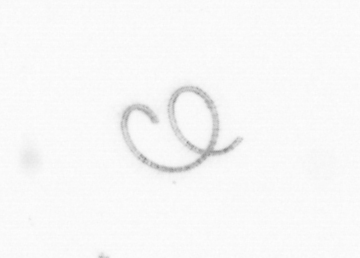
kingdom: Chromista
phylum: Ochrophyta
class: Bacillariophyceae
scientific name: Bacillariophyceae
